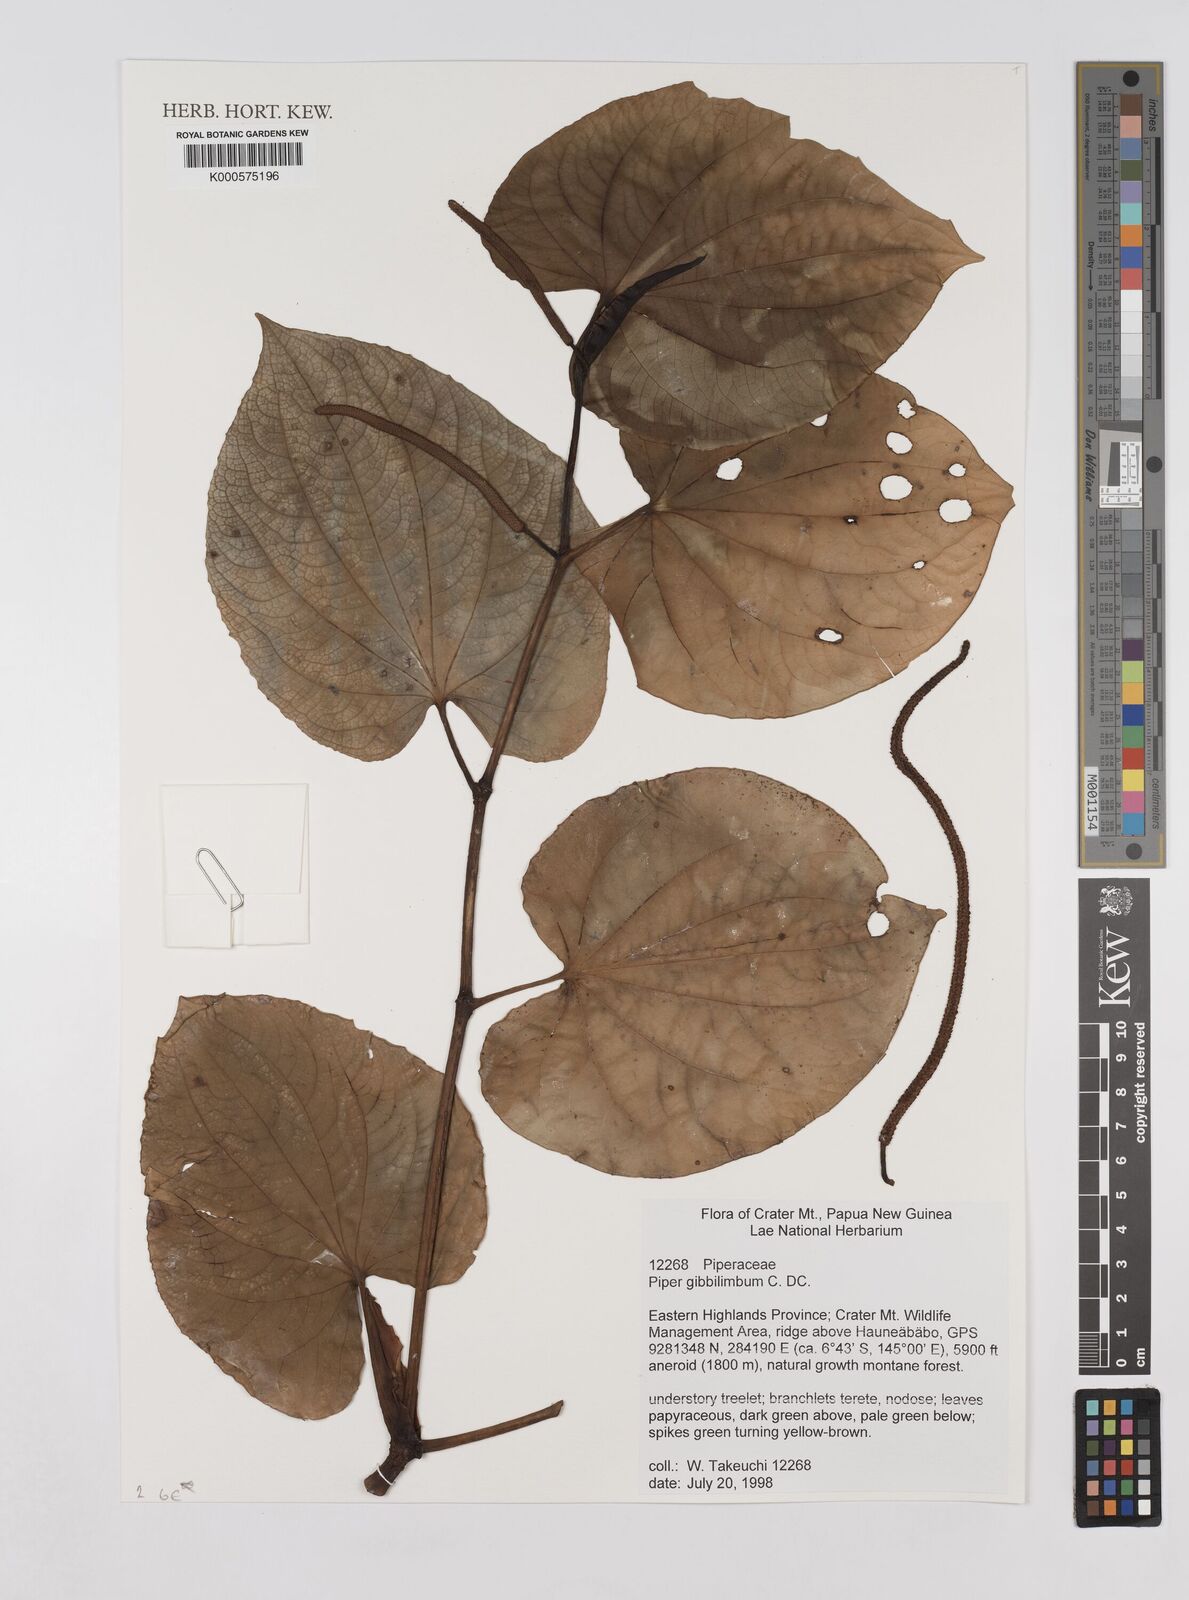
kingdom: Plantae
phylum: Tracheophyta
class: Magnoliopsida
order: Piperales
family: Piperaceae
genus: Piper
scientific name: Piper gibbilimbum
